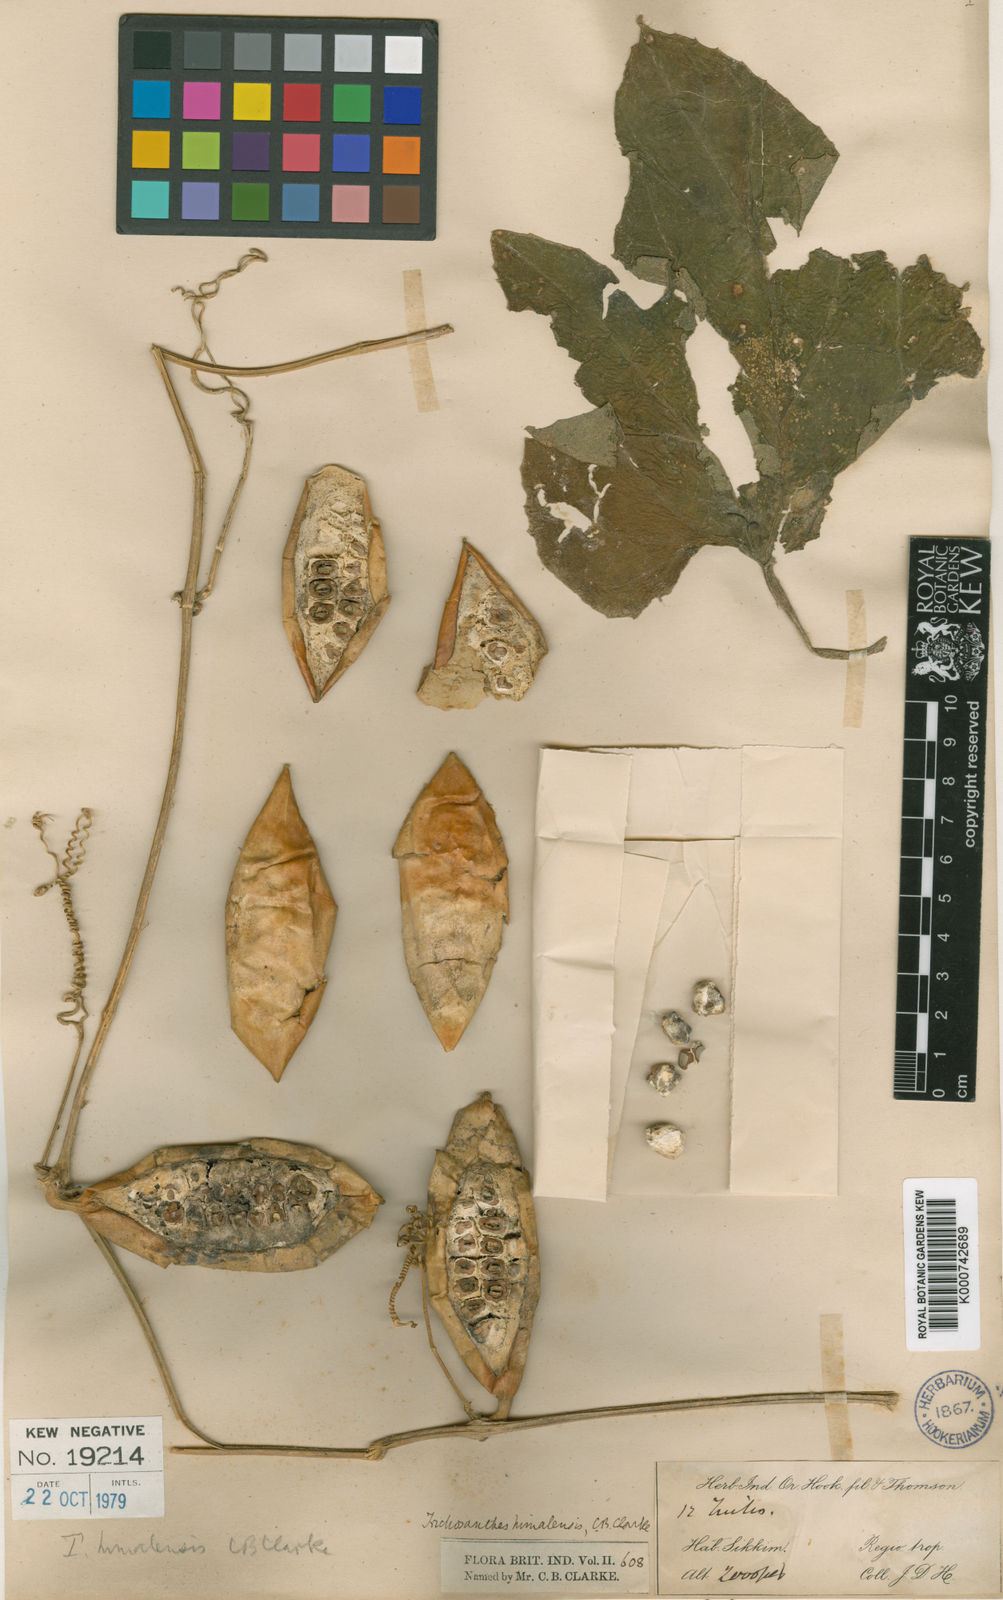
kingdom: Plantae
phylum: Tracheophyta
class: Magnoliopsida
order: Cucurbitales
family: Cucurbitaceae
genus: Trichosanthes
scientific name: Trichosanthes ovigera
